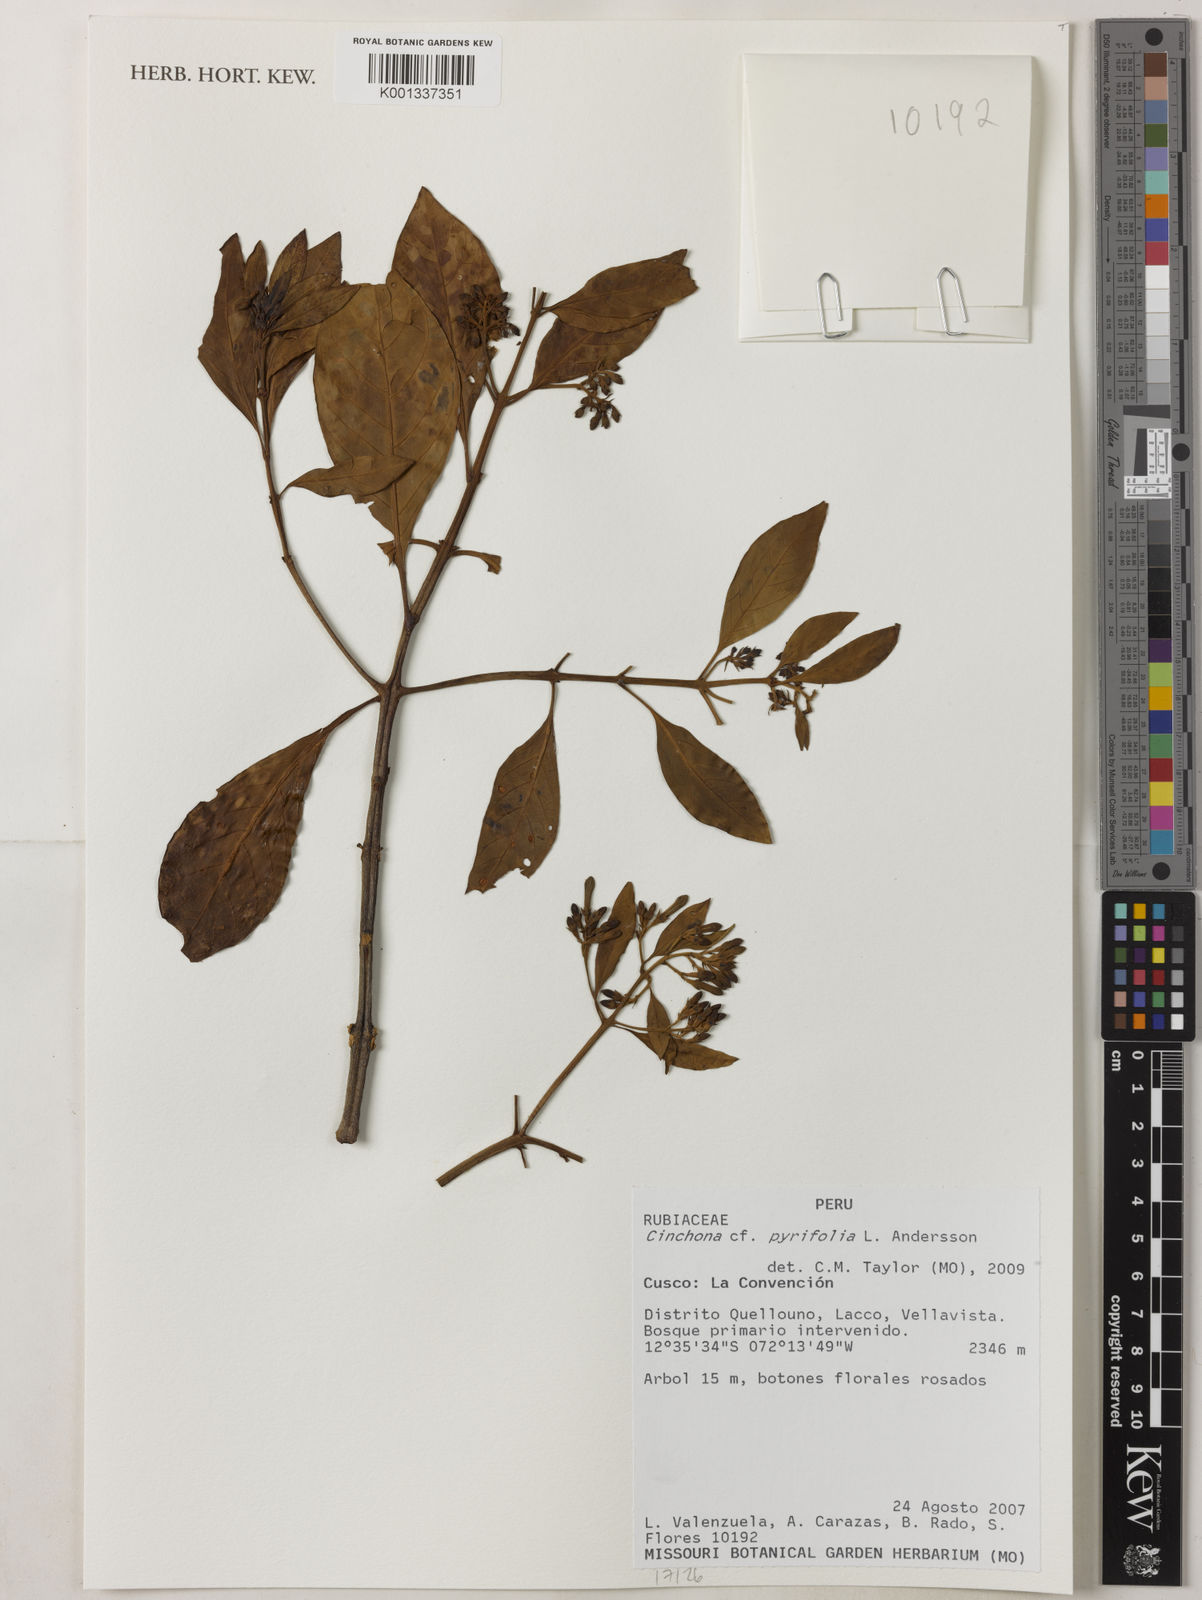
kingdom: Plantae
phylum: Tracheophyta
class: Magnoliopsida
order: Gentianales
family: Rubiaceae
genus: Cinchona
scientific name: Cinchona pyrifolia
